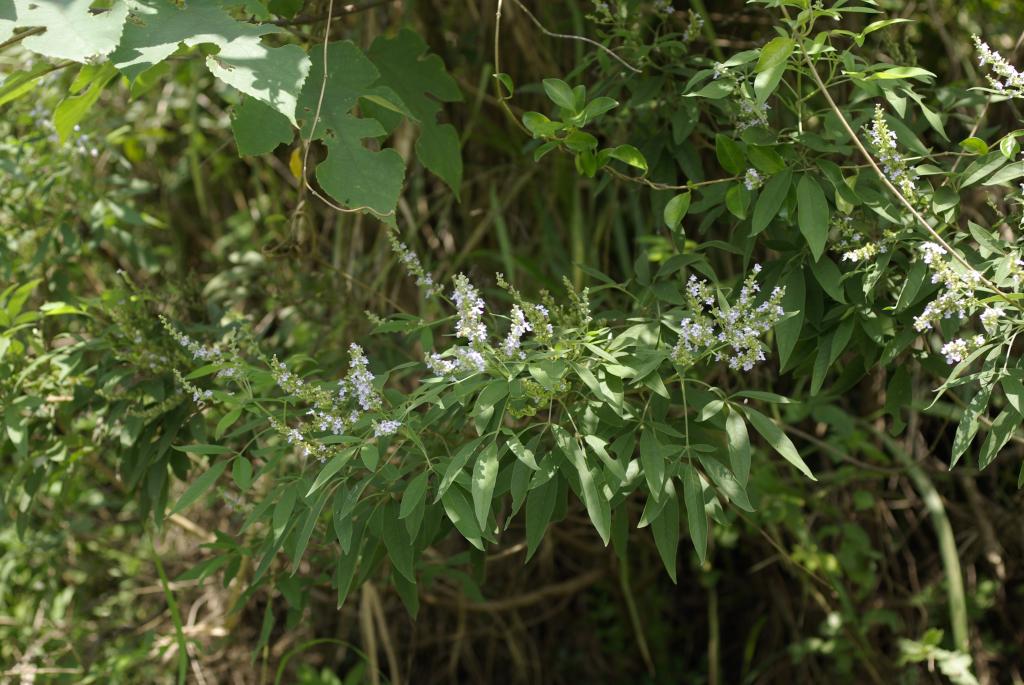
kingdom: Plantae
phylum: Tracheophyta
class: Magnoliopsida
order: Lamiales
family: Lamiaceae
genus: Vitex
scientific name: Vitex negundo
